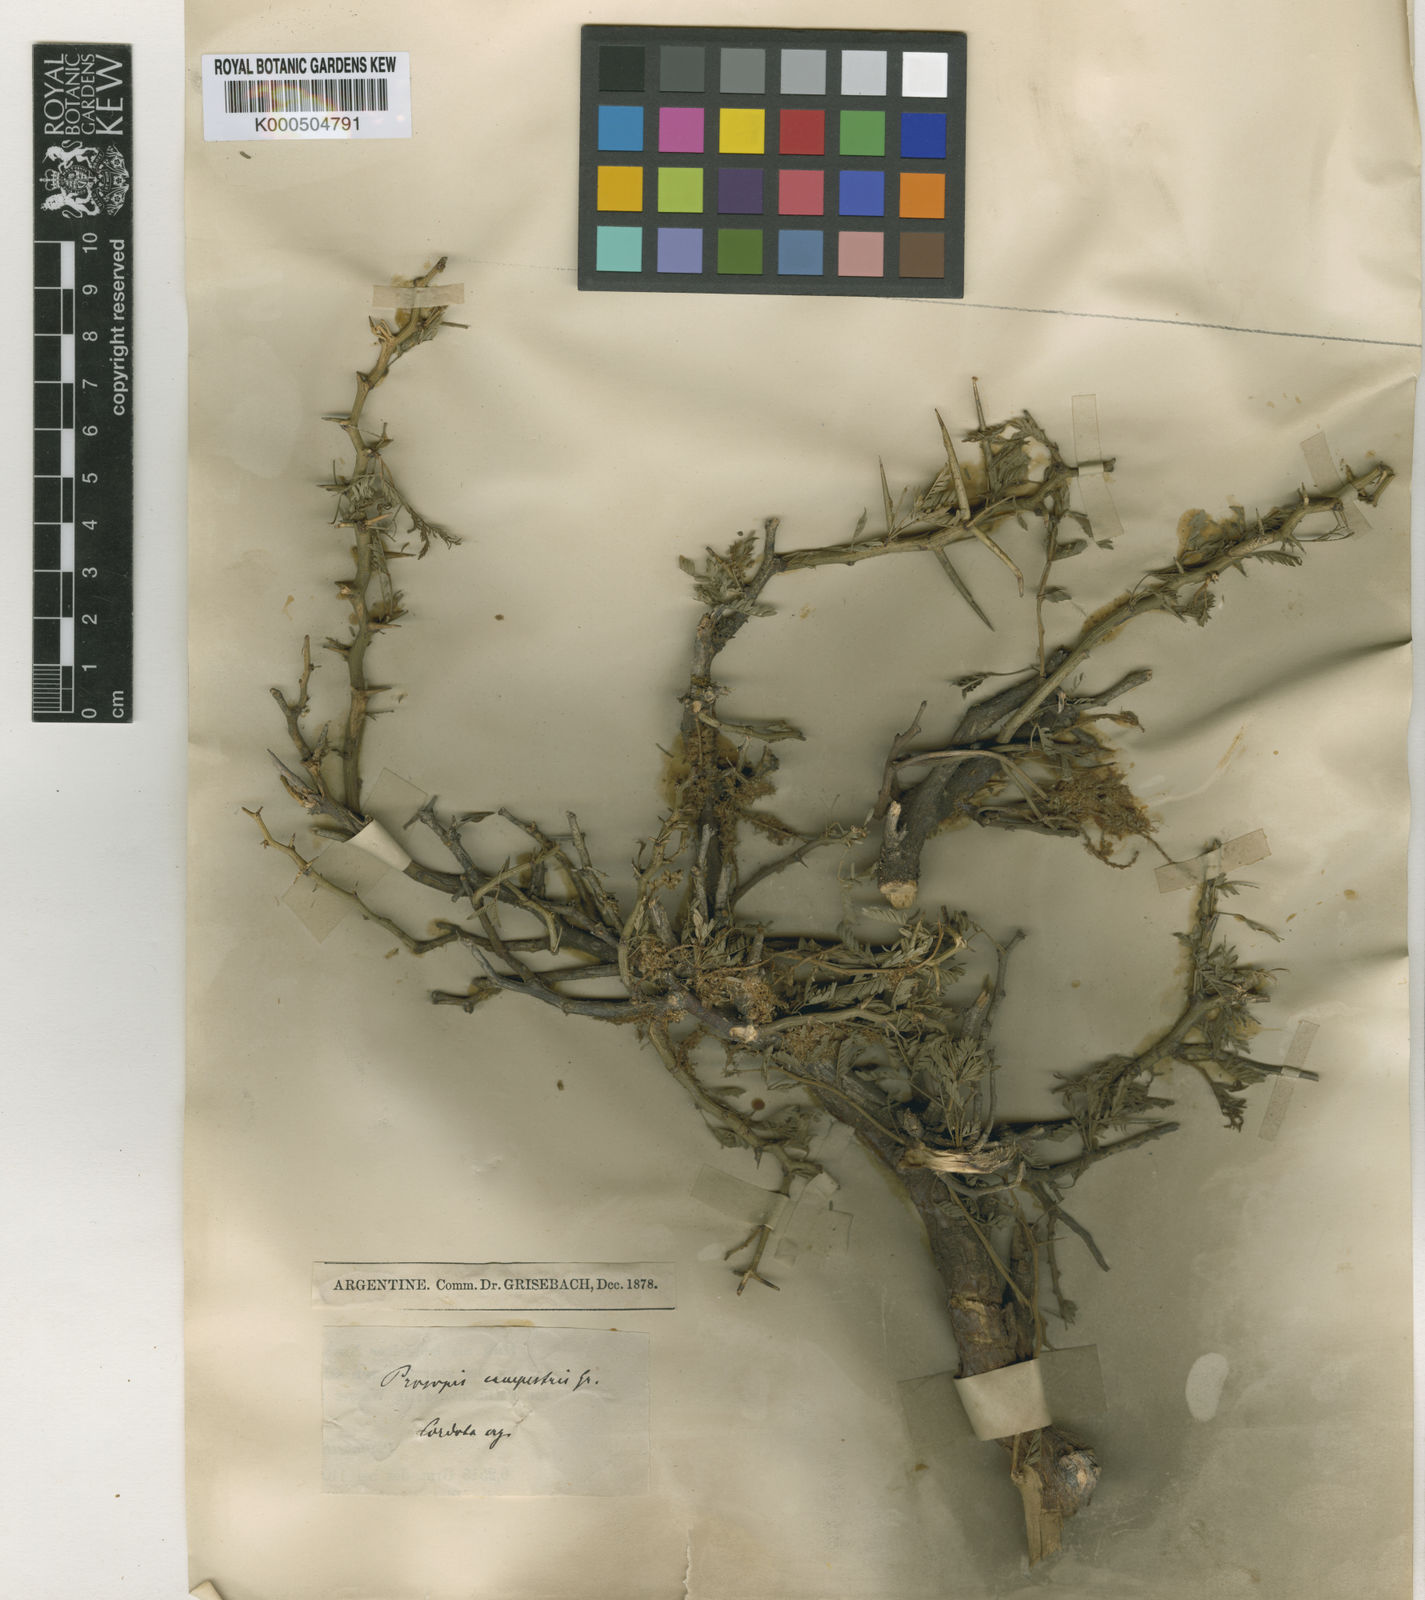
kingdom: Plantae
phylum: Tracheophyta
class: Magnoliopsida
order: Fabales
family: Fabaceae
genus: Prosopis
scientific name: Prosopis campestris
